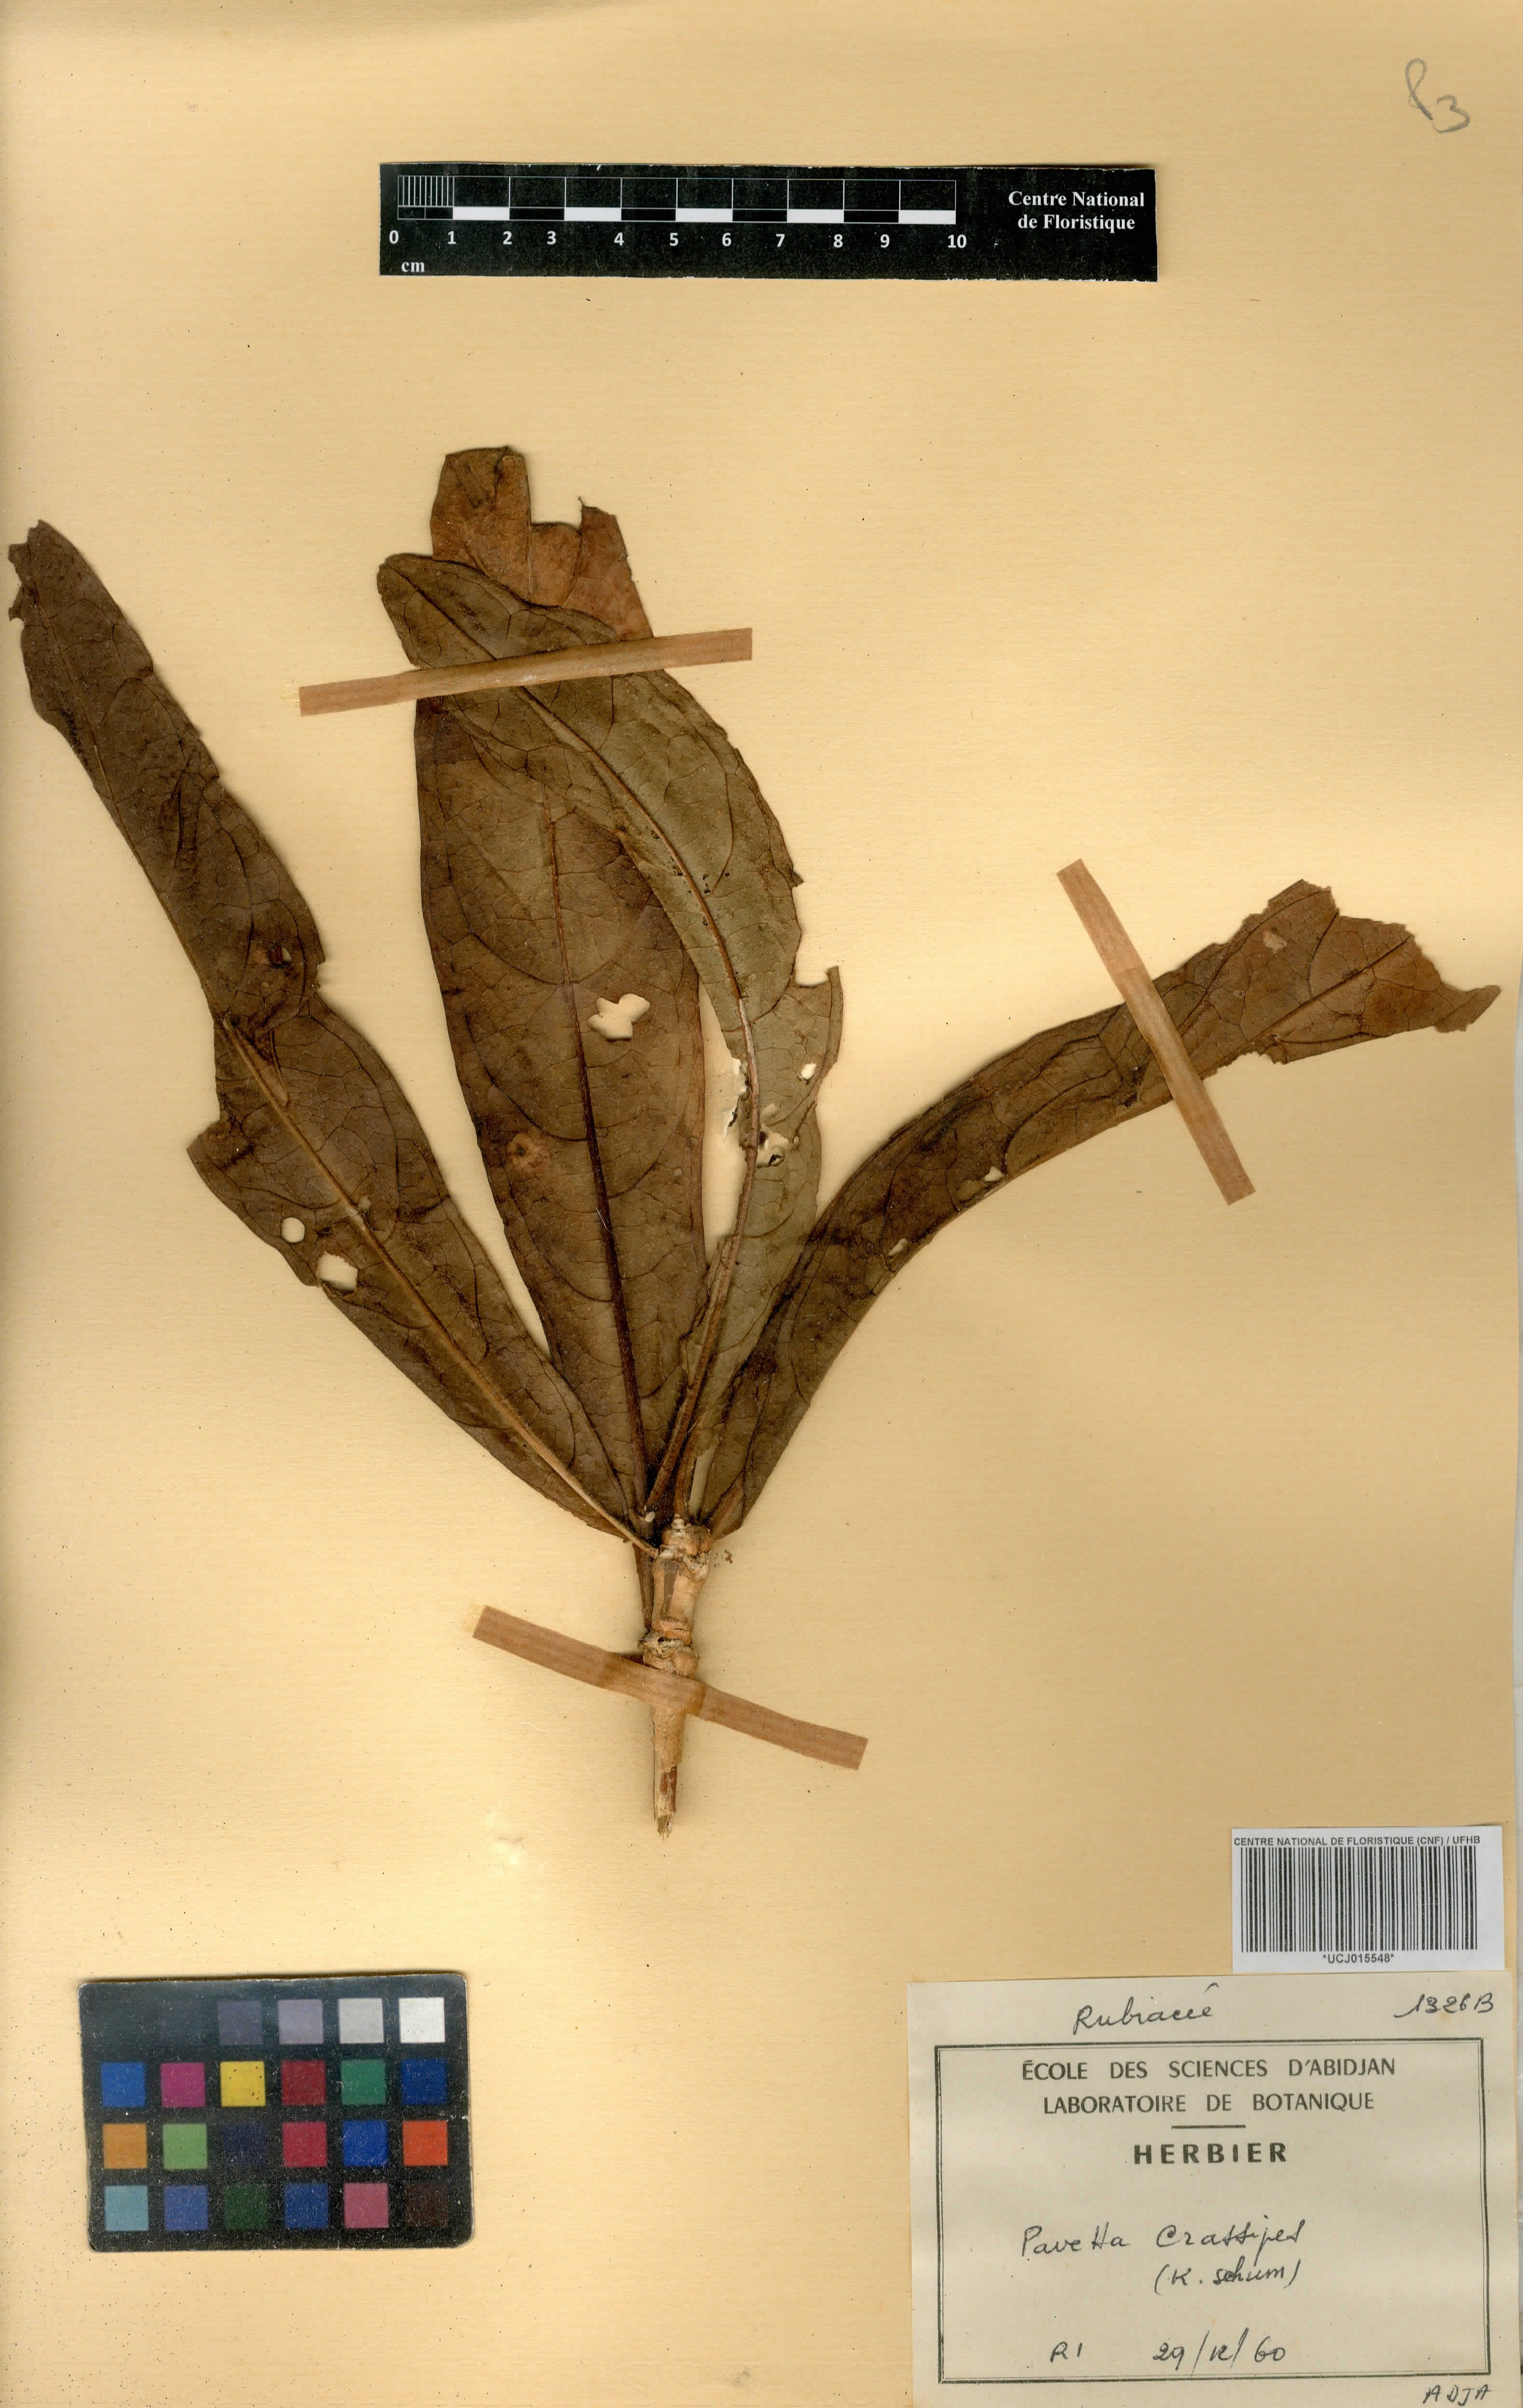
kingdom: Plantae
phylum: Tracheophyta
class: Magnoliopsida
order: Gentianales
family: Rubiaceae
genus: Pavetta
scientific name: Pavetta crassipes
